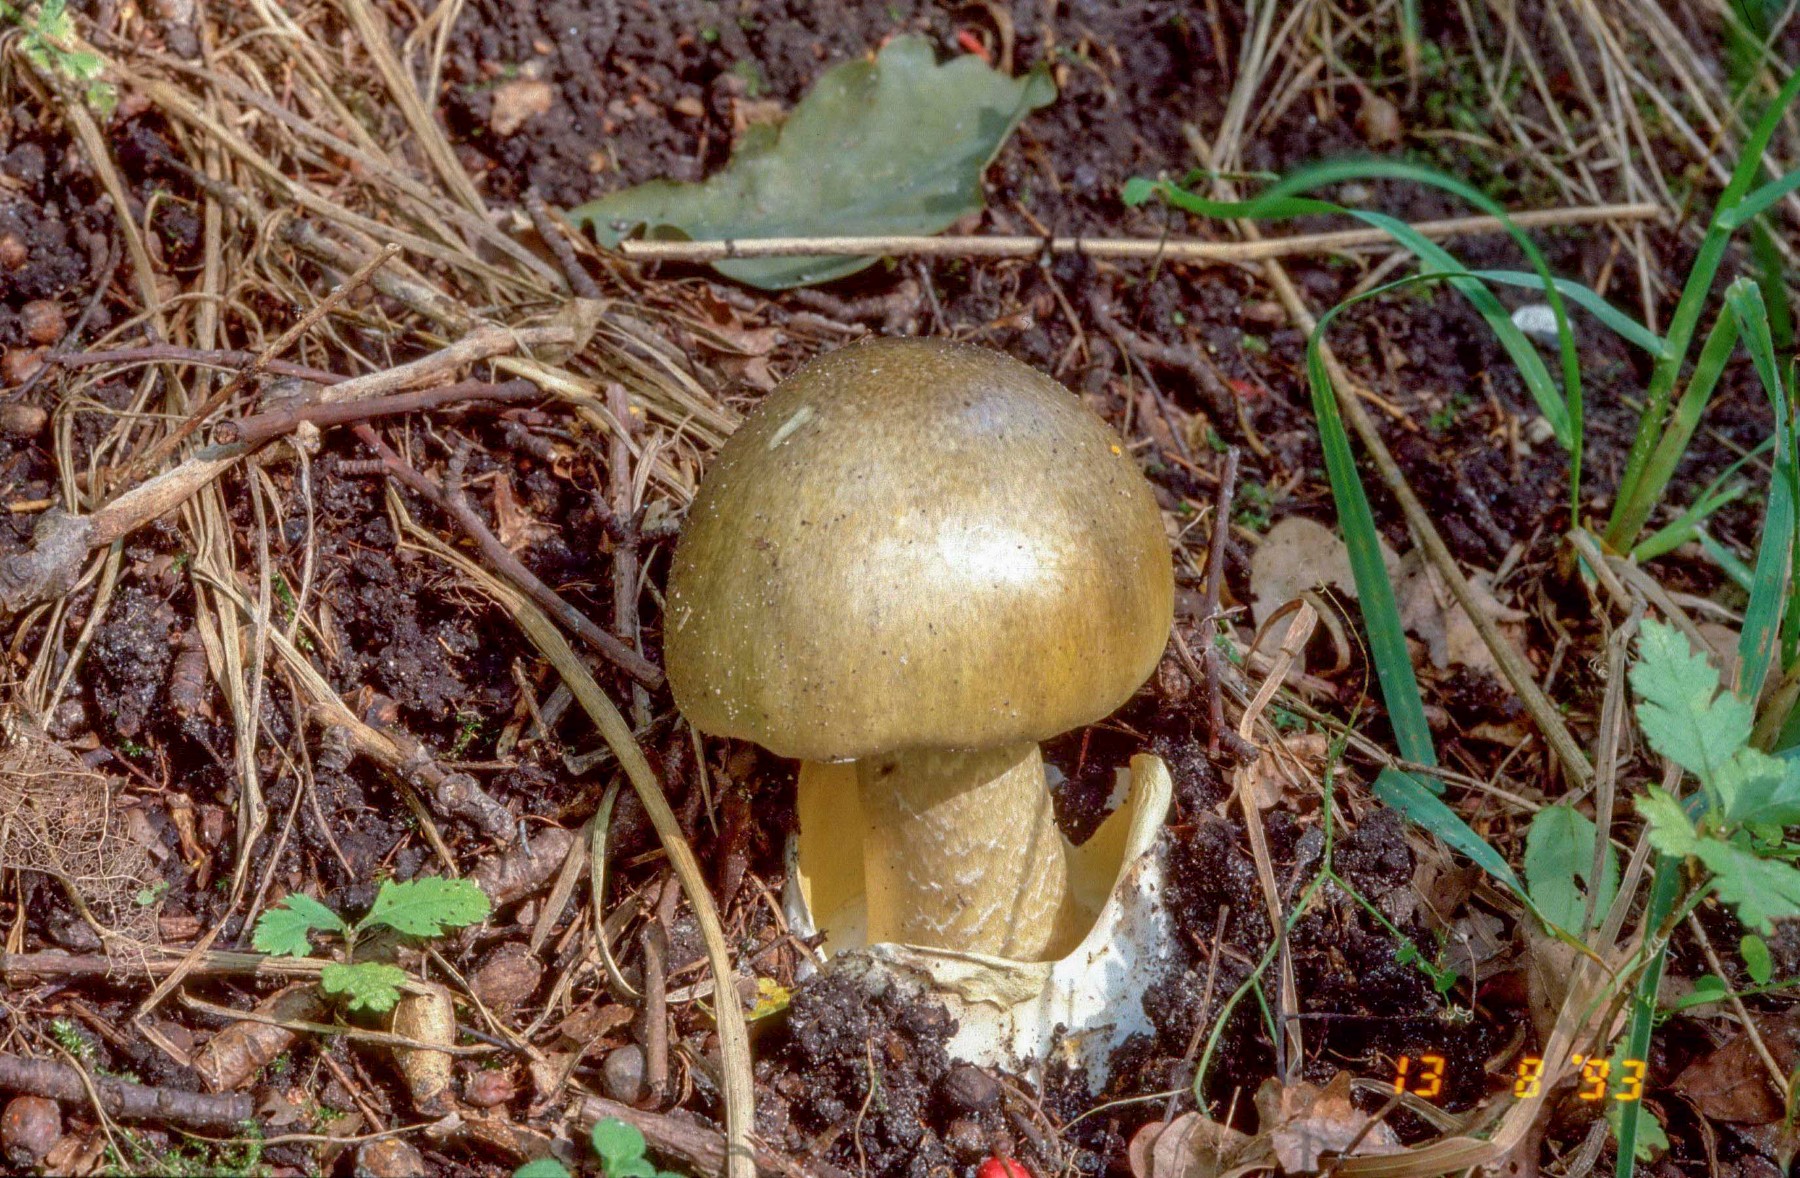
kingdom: Fungi
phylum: Basidiomycota
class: Agaricomycetes
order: Agaricales
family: Amanitaceae
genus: Amanita
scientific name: Amanita phalloides
